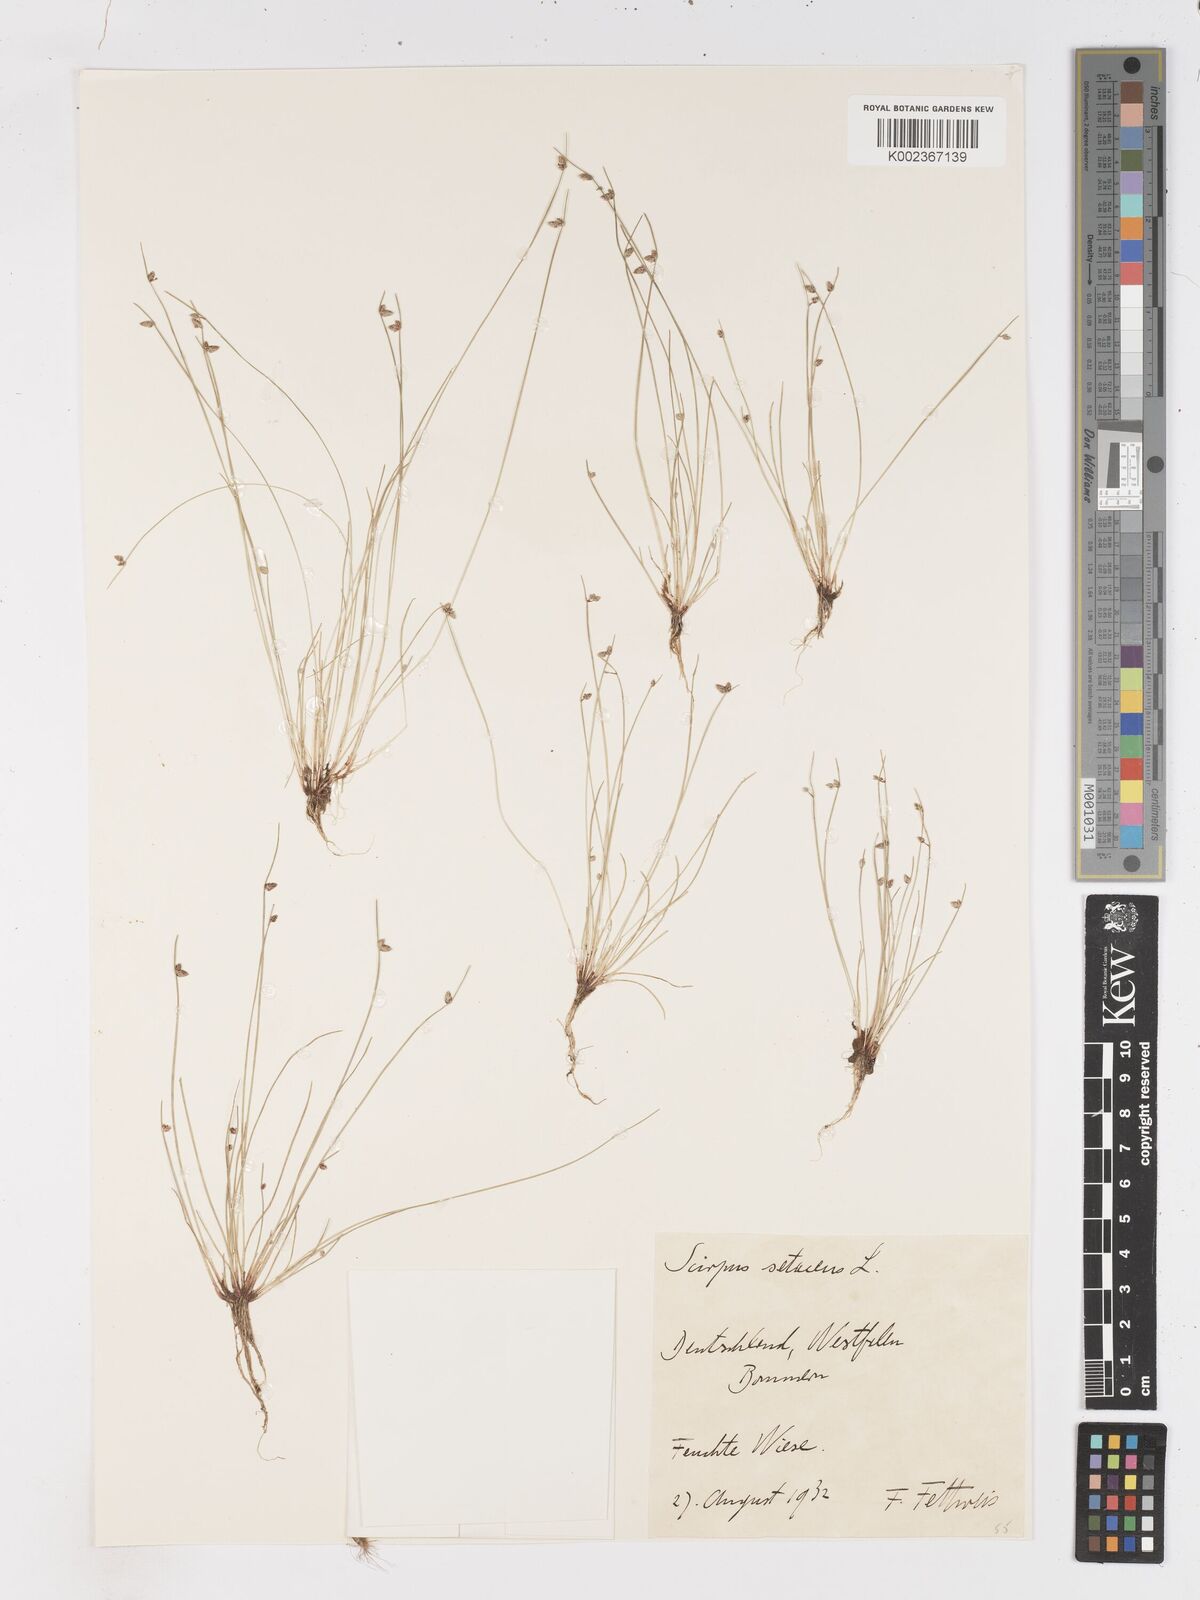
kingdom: Plantae
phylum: Tracheophyta
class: Liliopsida
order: Poales
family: Cyperaceae
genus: Isolepis
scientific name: Isolepis setacea
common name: Bristle club-rush
